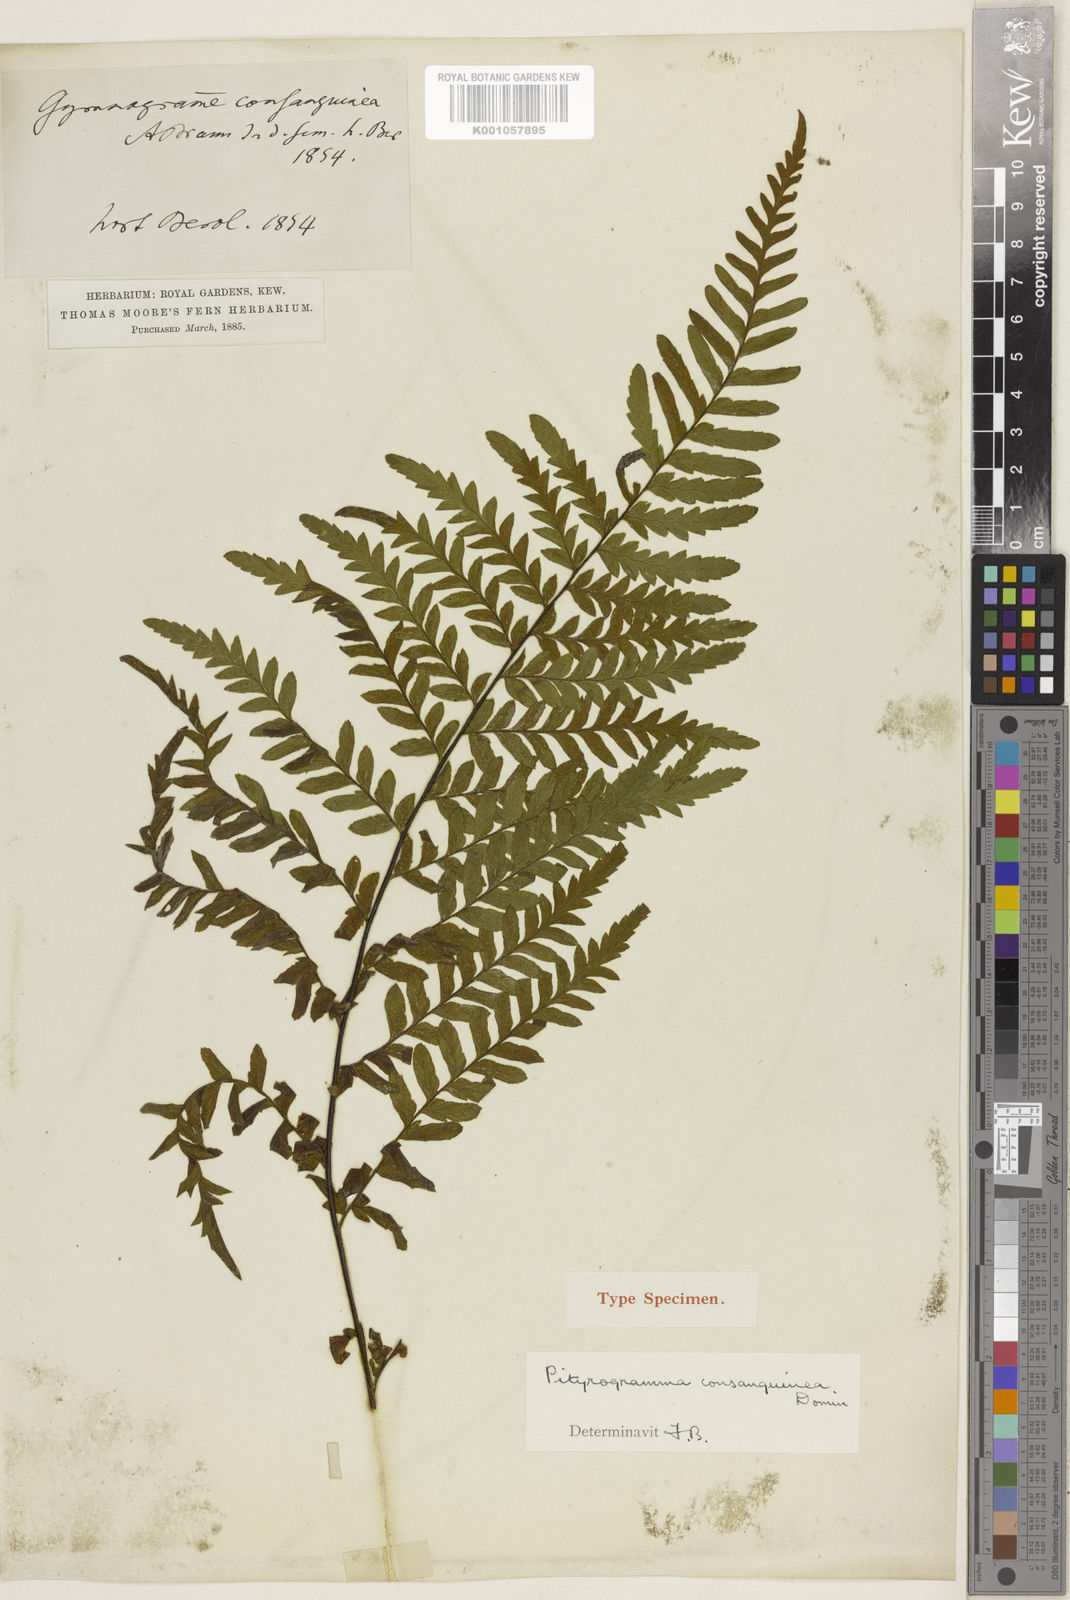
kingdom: Plantae
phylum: Tracheophyta
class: Polypodiopsida
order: Polypodiales
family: Pteridaceae
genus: Pityrogramma
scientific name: Pityrogramma
